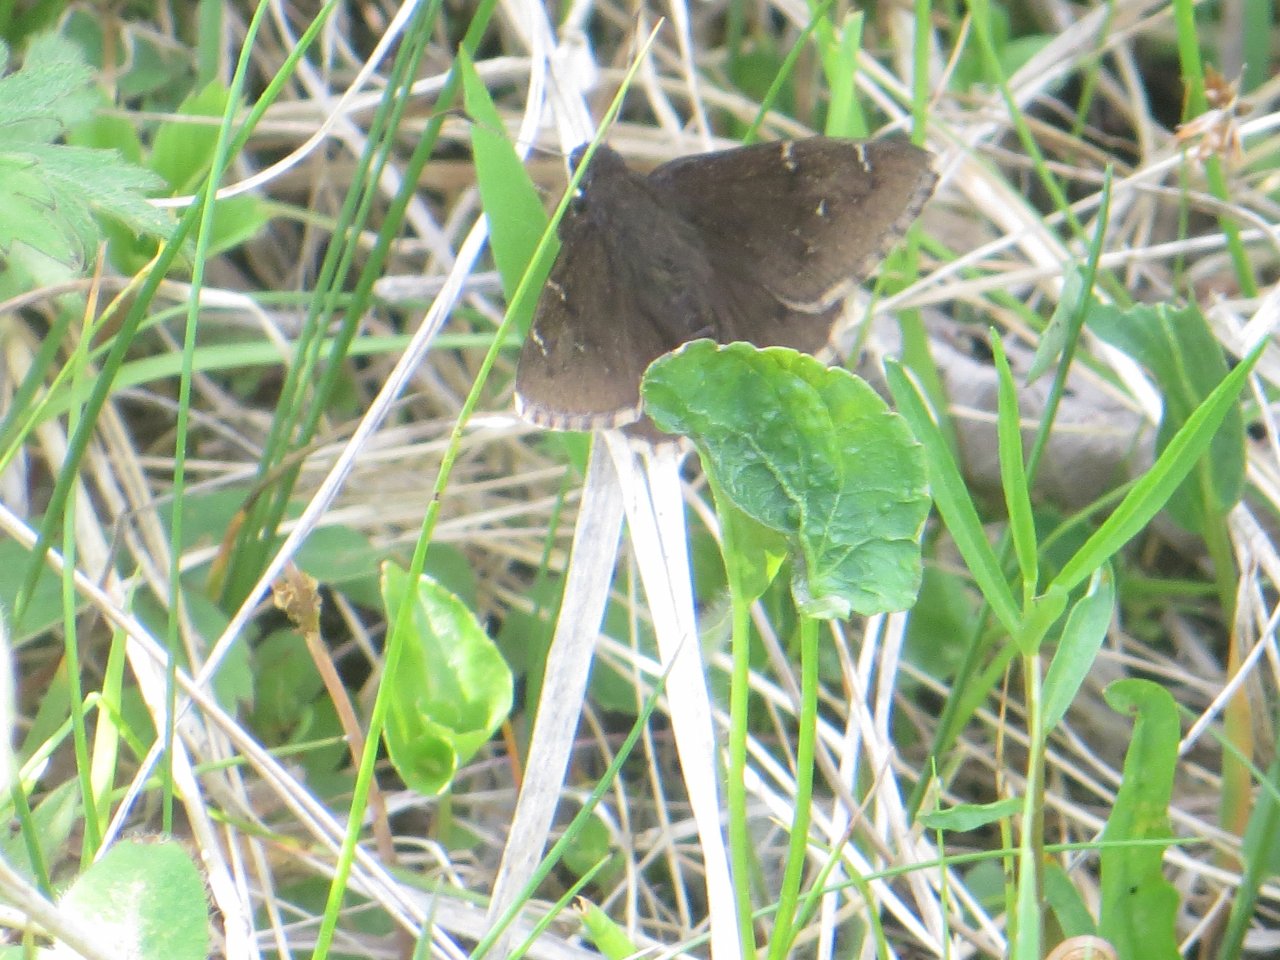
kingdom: Animalia
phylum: Arthropoda
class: Insecta
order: Lepidoptera
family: Hesperiidae
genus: Autochton
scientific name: Autochton
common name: Northern Cloudywing
